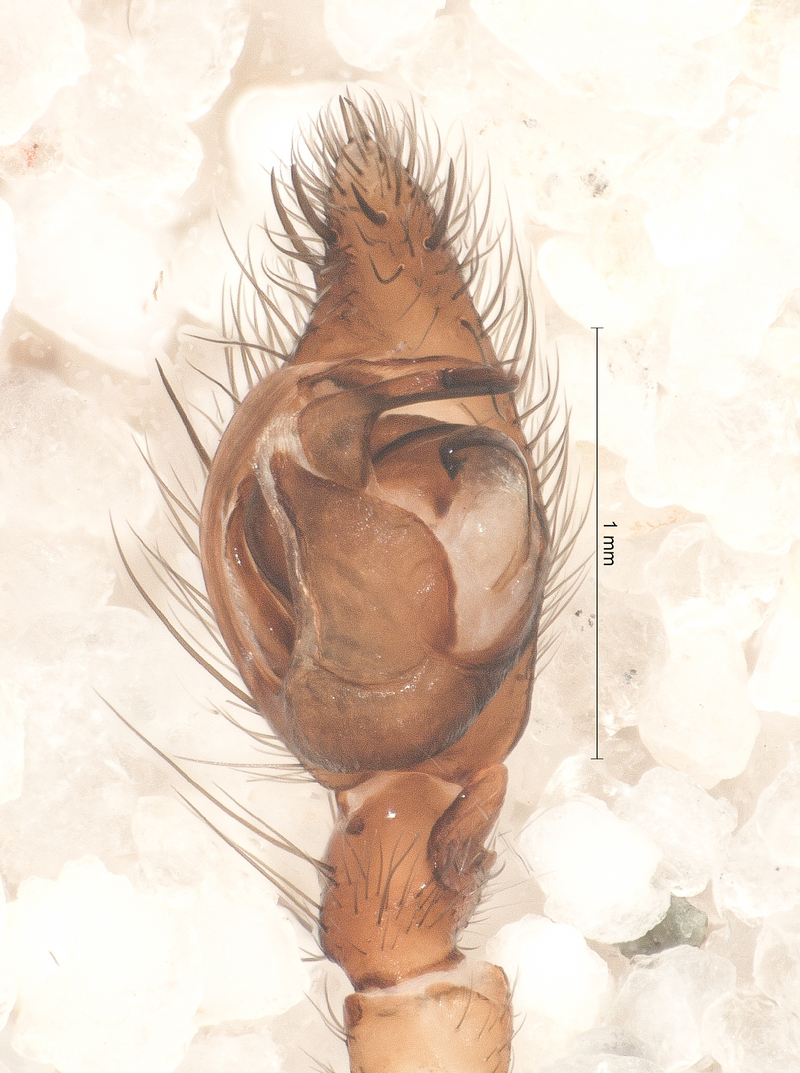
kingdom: Animalia
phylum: Arthropoda
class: Arachnida
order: Araneae
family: Agelenidae
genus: Inermocoelotes
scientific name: Inermocoelotes inermis
